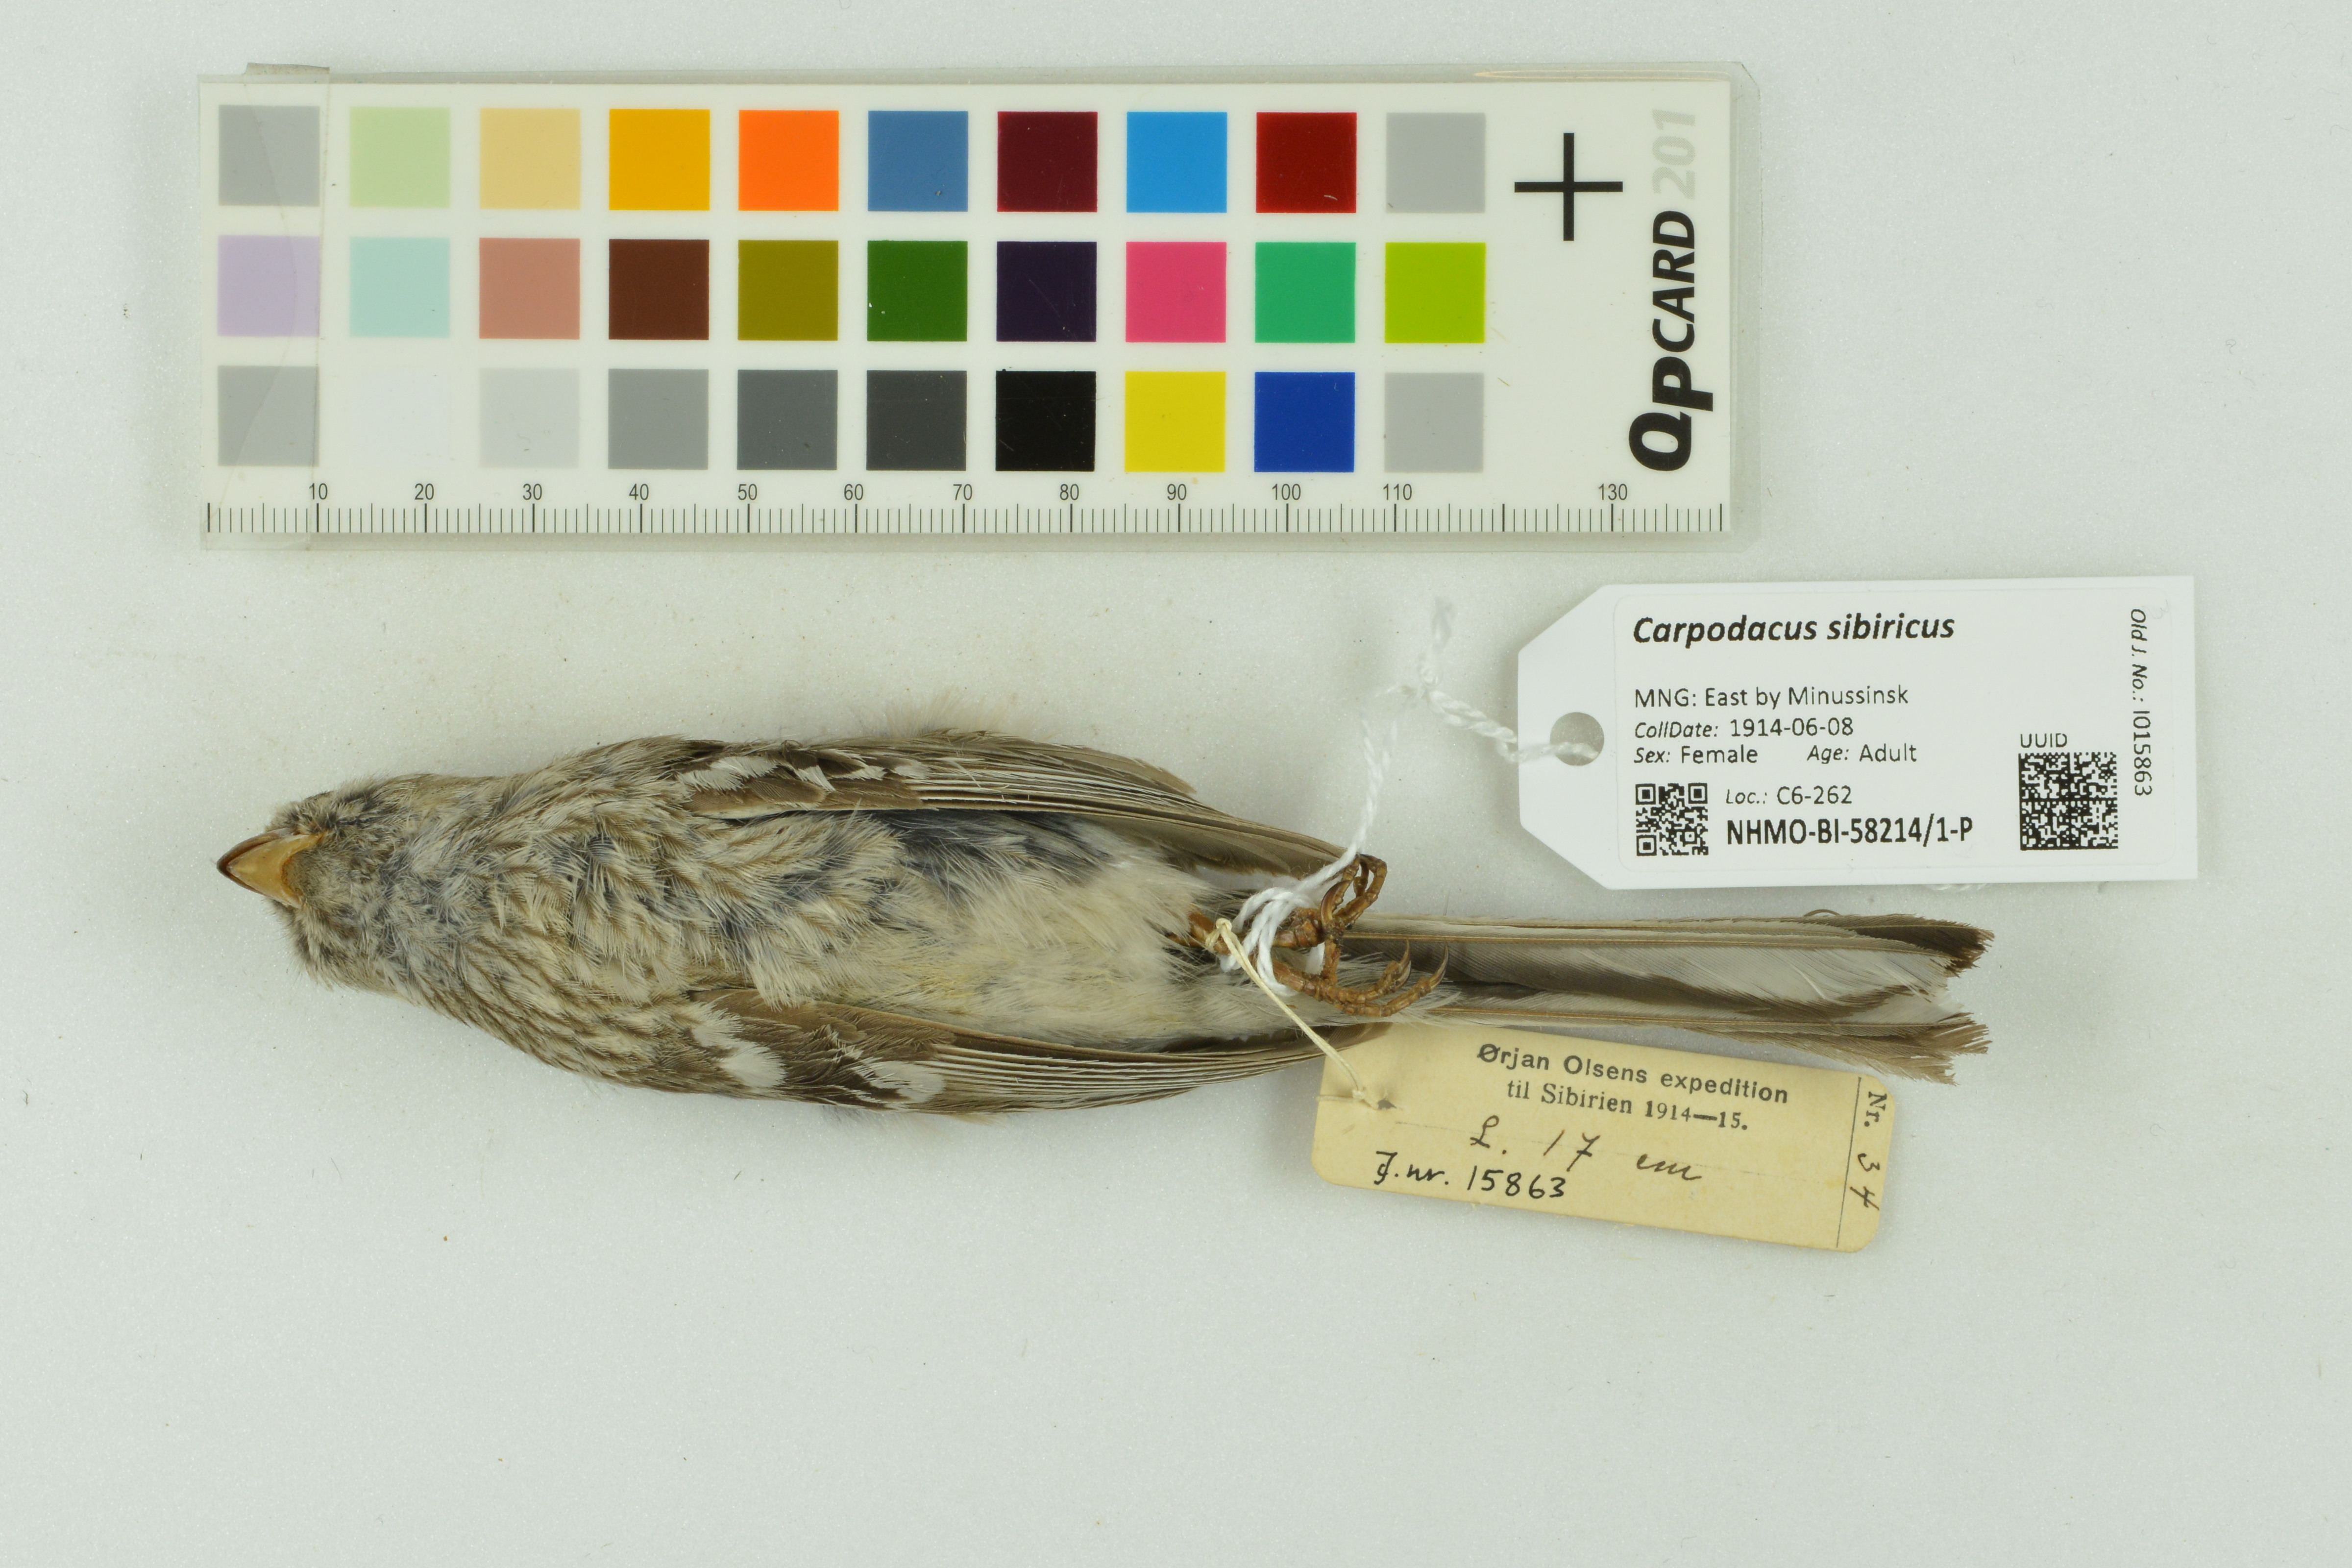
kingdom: Animalia
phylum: Chordata
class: Aves
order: Passeriformes
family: Fringillidae
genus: Carpodacus
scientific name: Carpodacus sibiricus
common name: Long-tailed rosefinch
